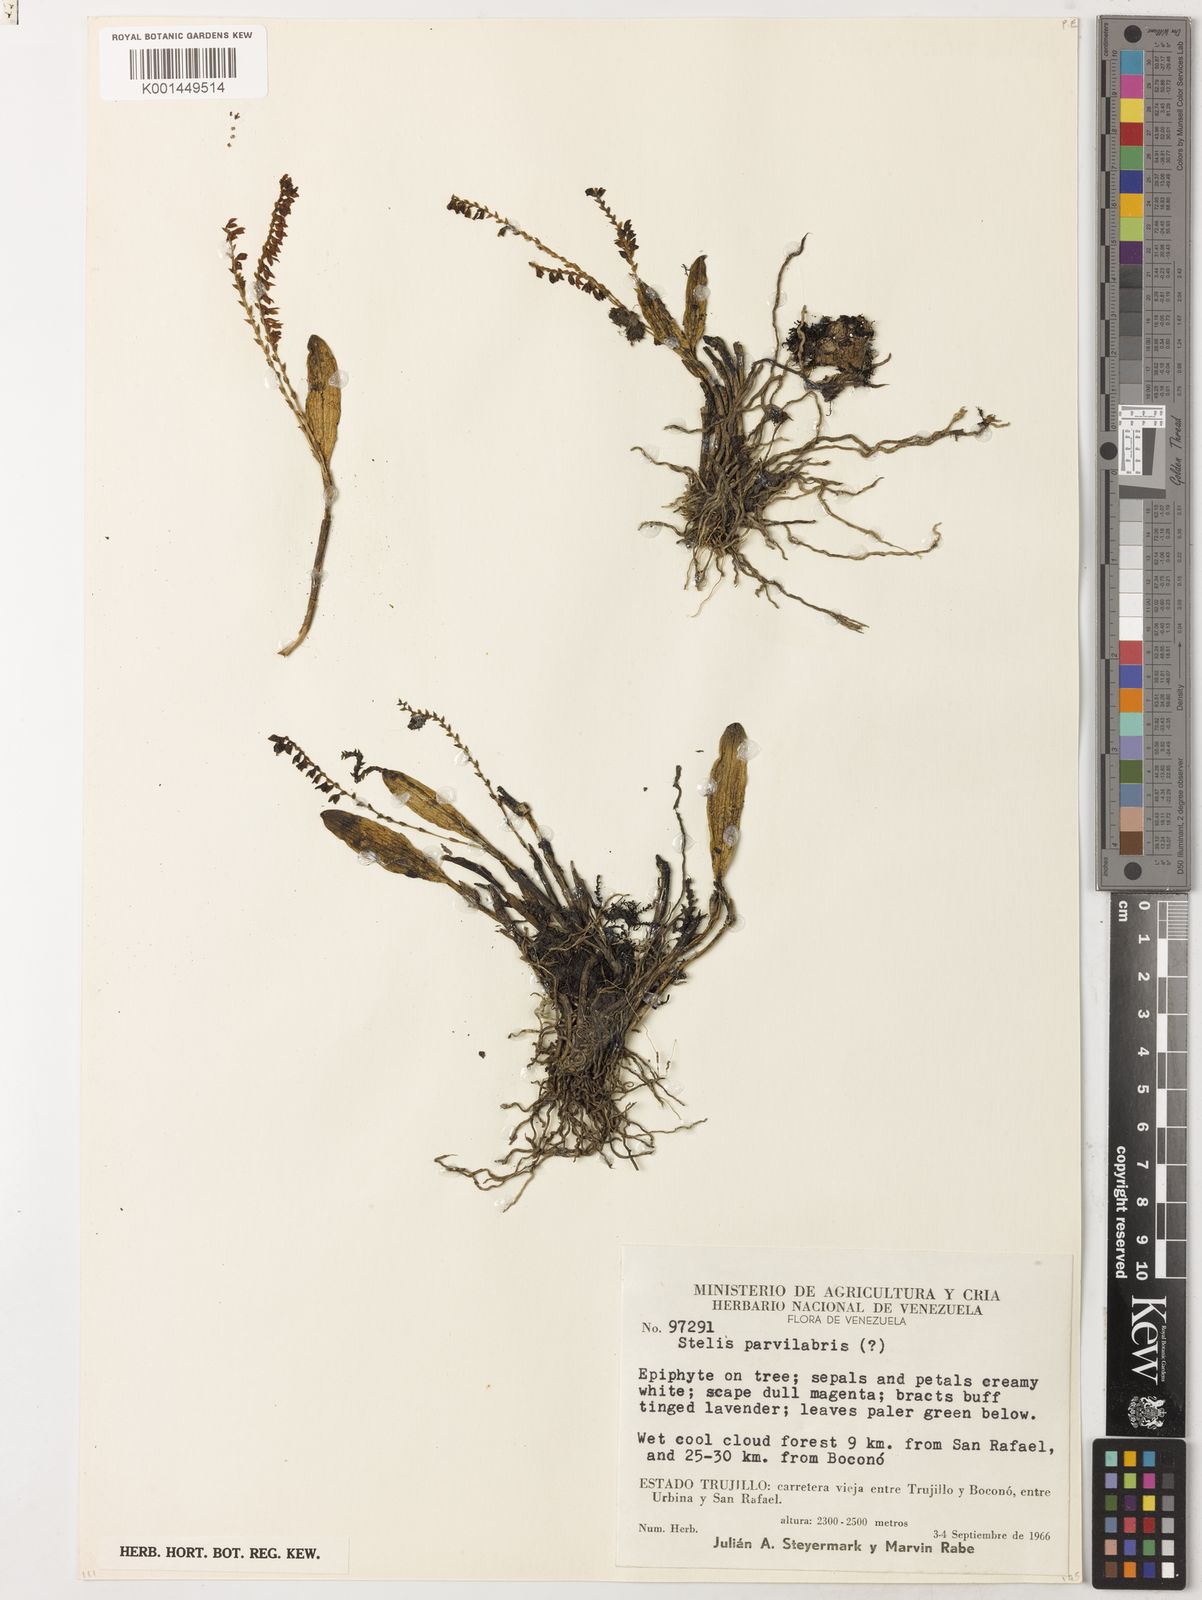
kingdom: Plantae
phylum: Tracheophyta
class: Liliopsida
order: Asparagales
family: Orchidaceae
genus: Stelis
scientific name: Stelis parvilabris
